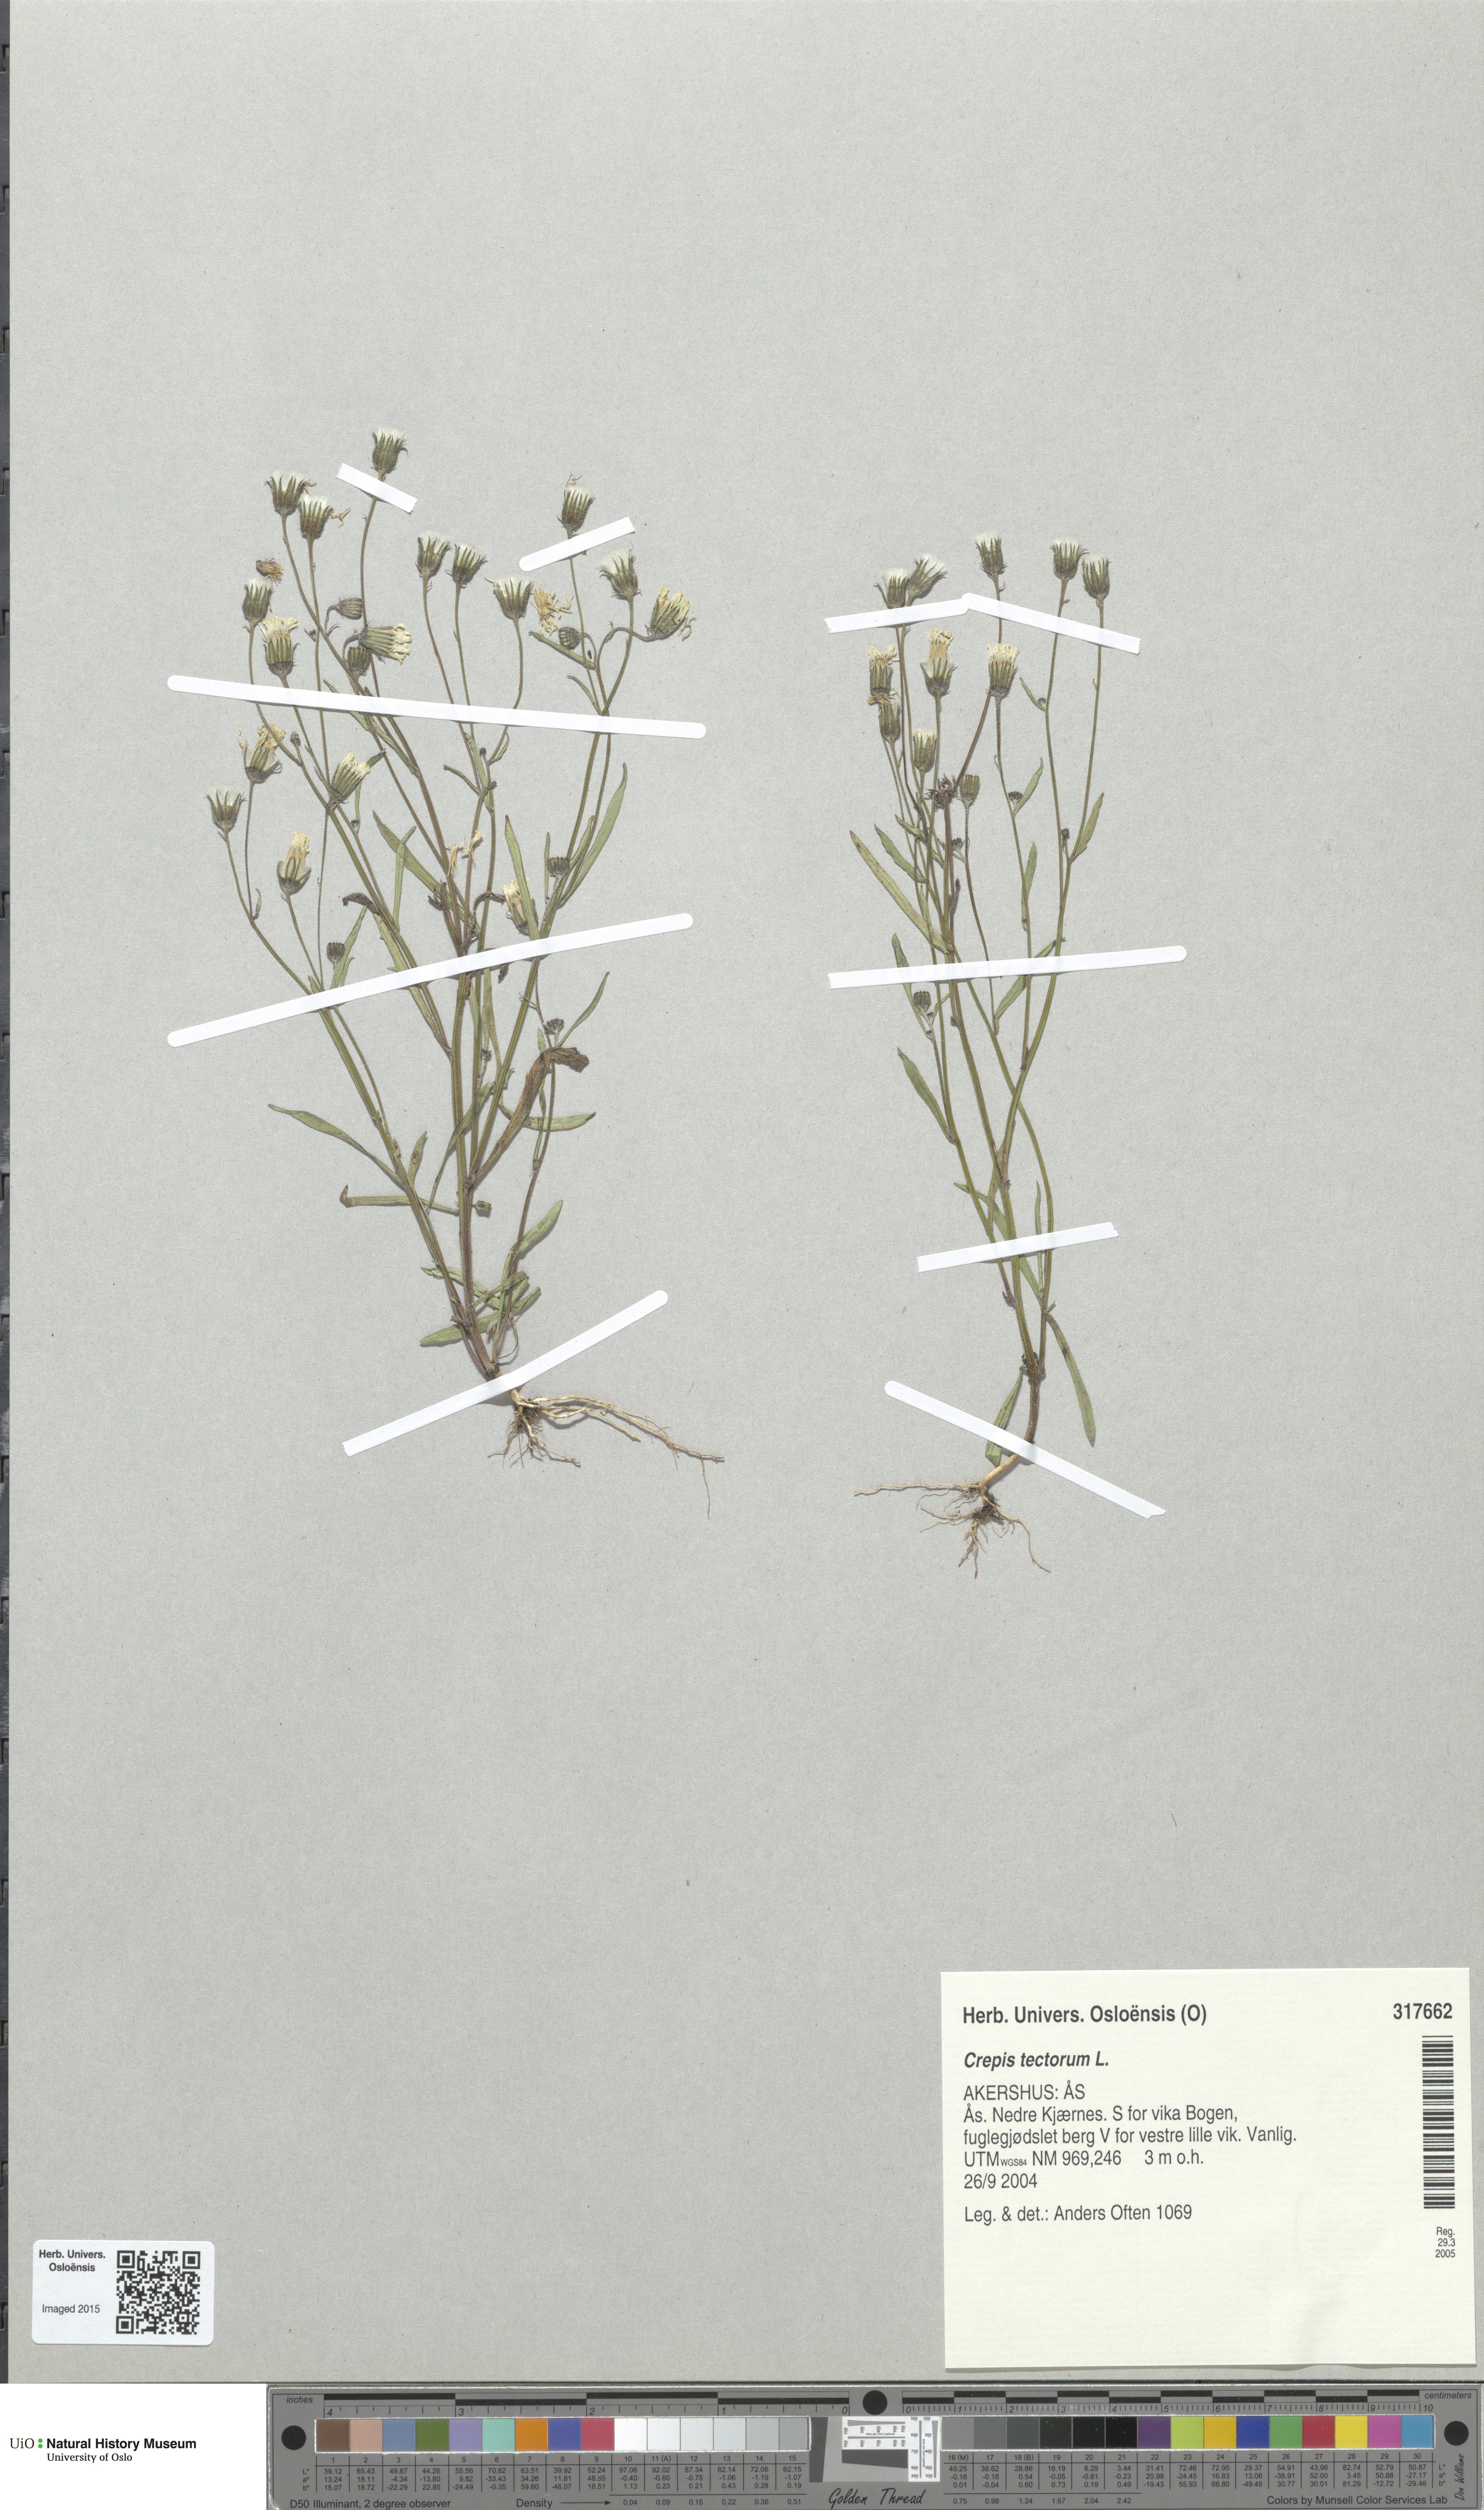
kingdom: Plantae
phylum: Tracheophyta
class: Magnoliopsida
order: Asterales
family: Asteraceae
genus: Crepis
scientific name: Crepis tectorum
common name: Narrow-leaved hawk's-beard
